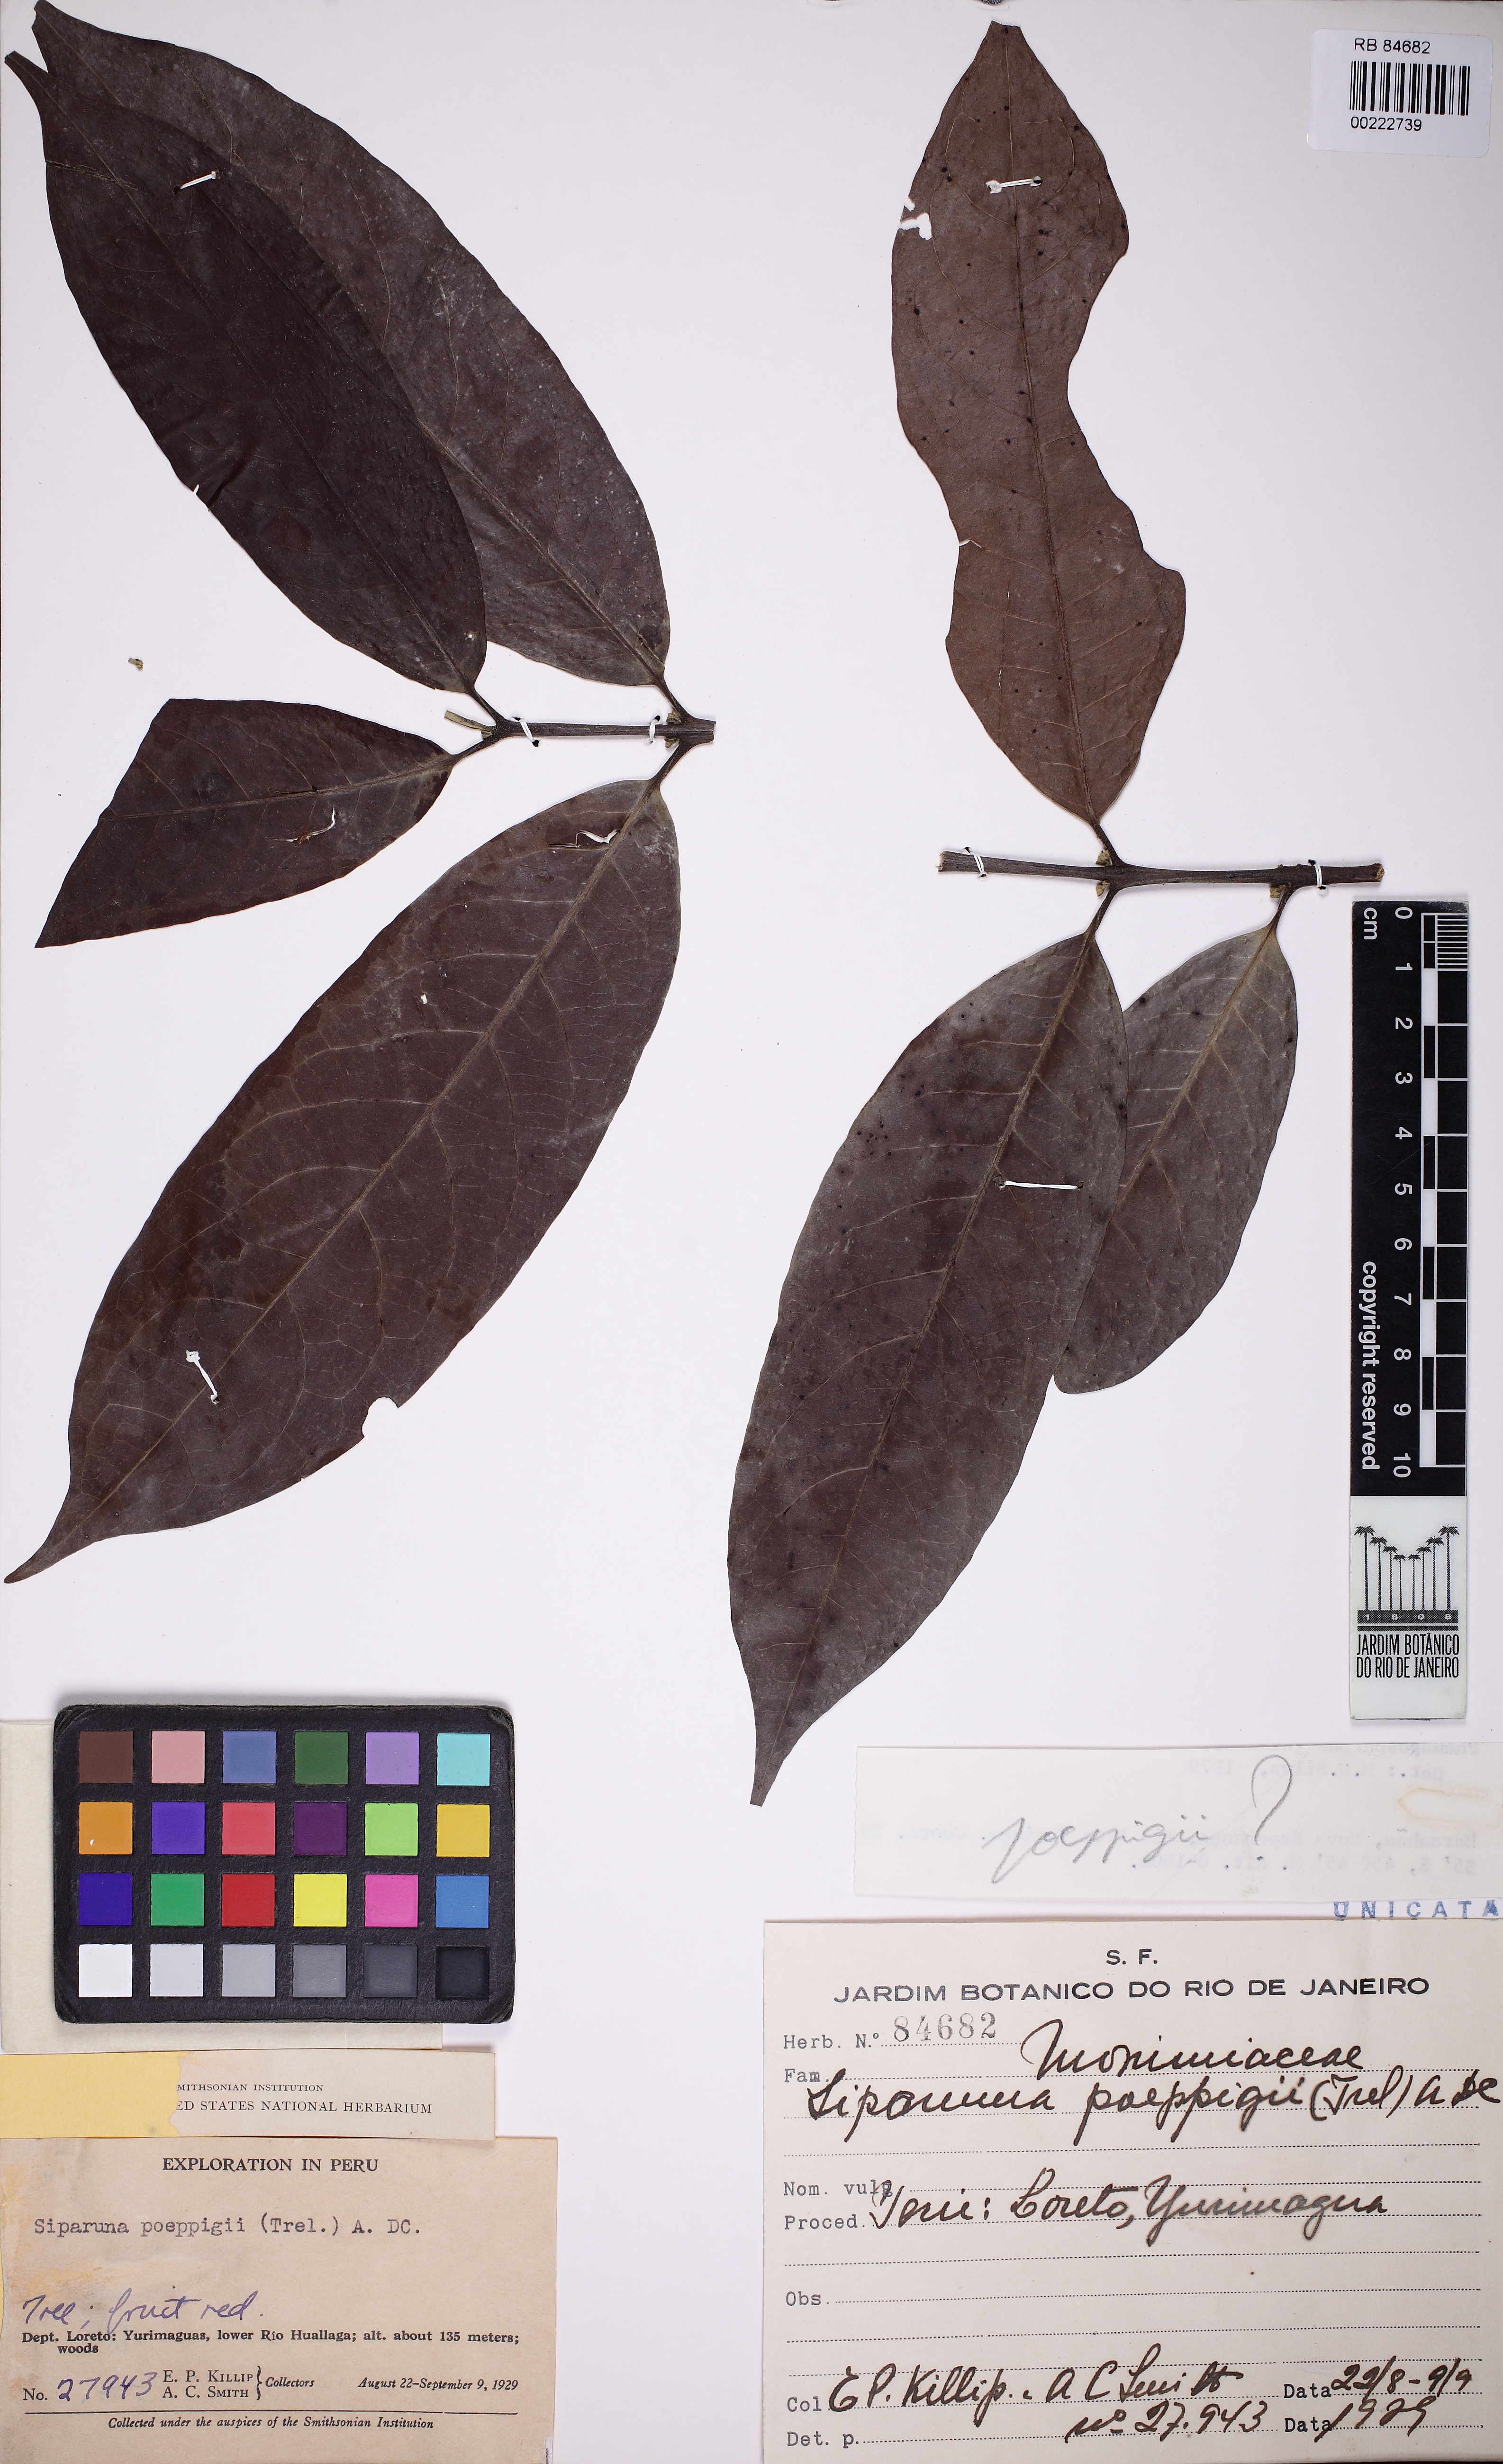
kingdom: Plantae
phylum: Tracheophyta
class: Magnoliopsida
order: Laurales
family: Siparunaceae
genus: Siparuna
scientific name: Siparuna poeppigii
